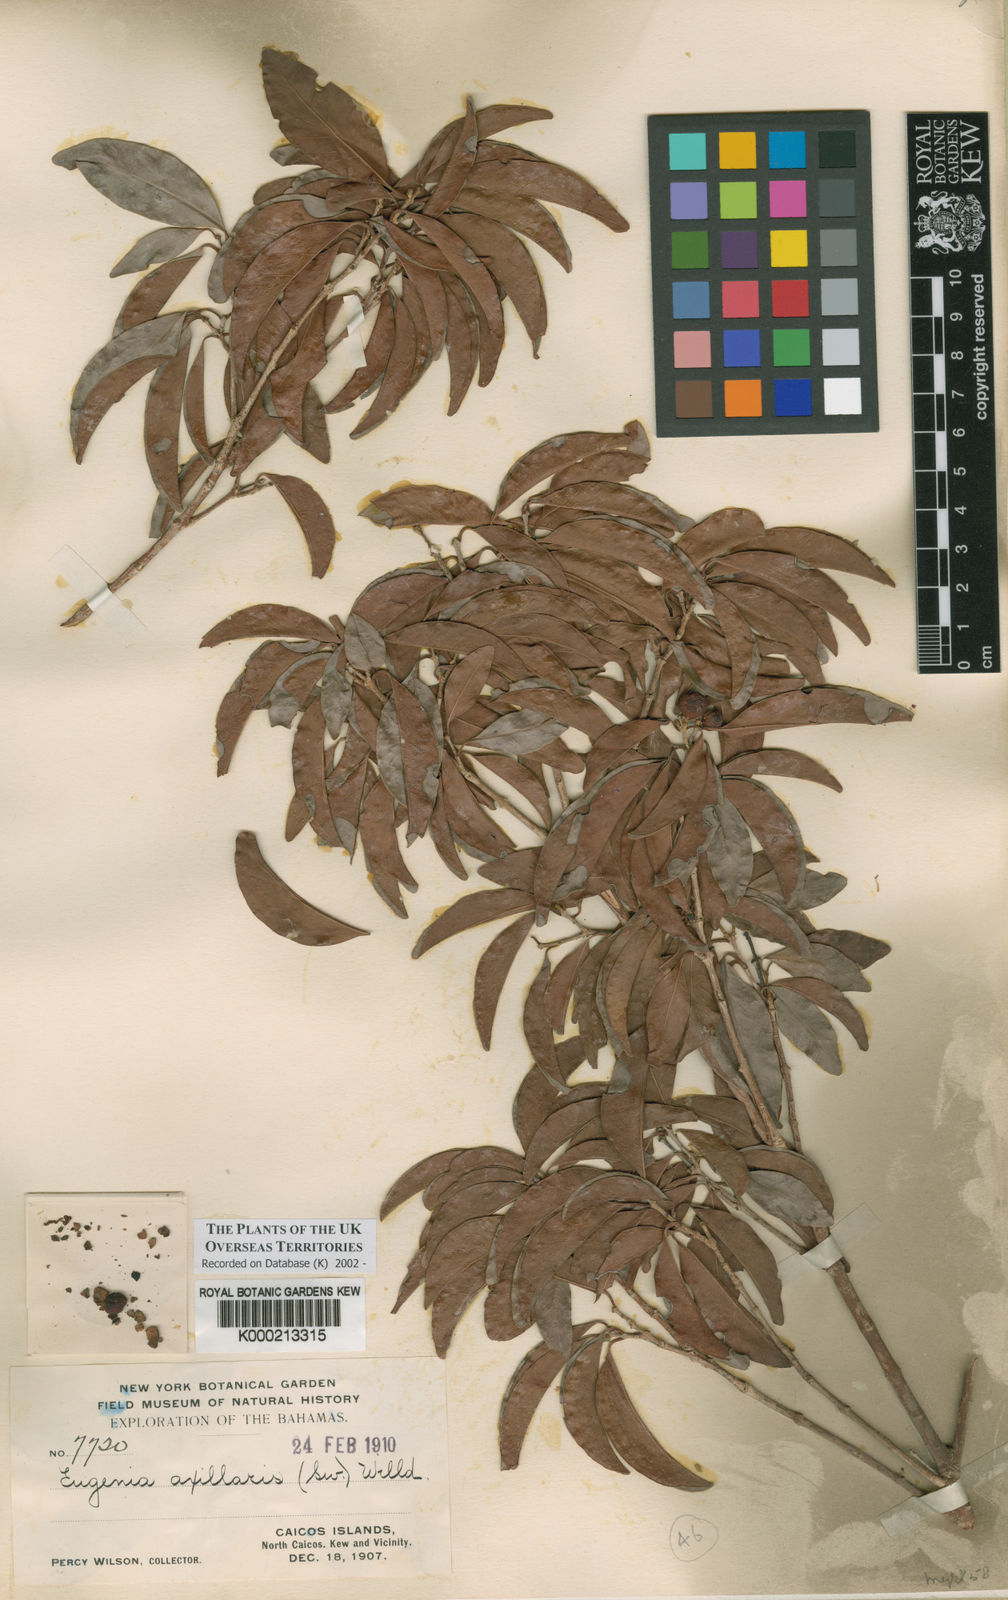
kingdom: Plantae
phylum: Tracheophyta
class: Magnoliopsida
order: Myrtales
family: Myrtaceae
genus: Eugenia
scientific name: Eugenia axillaris
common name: Choaky berry
